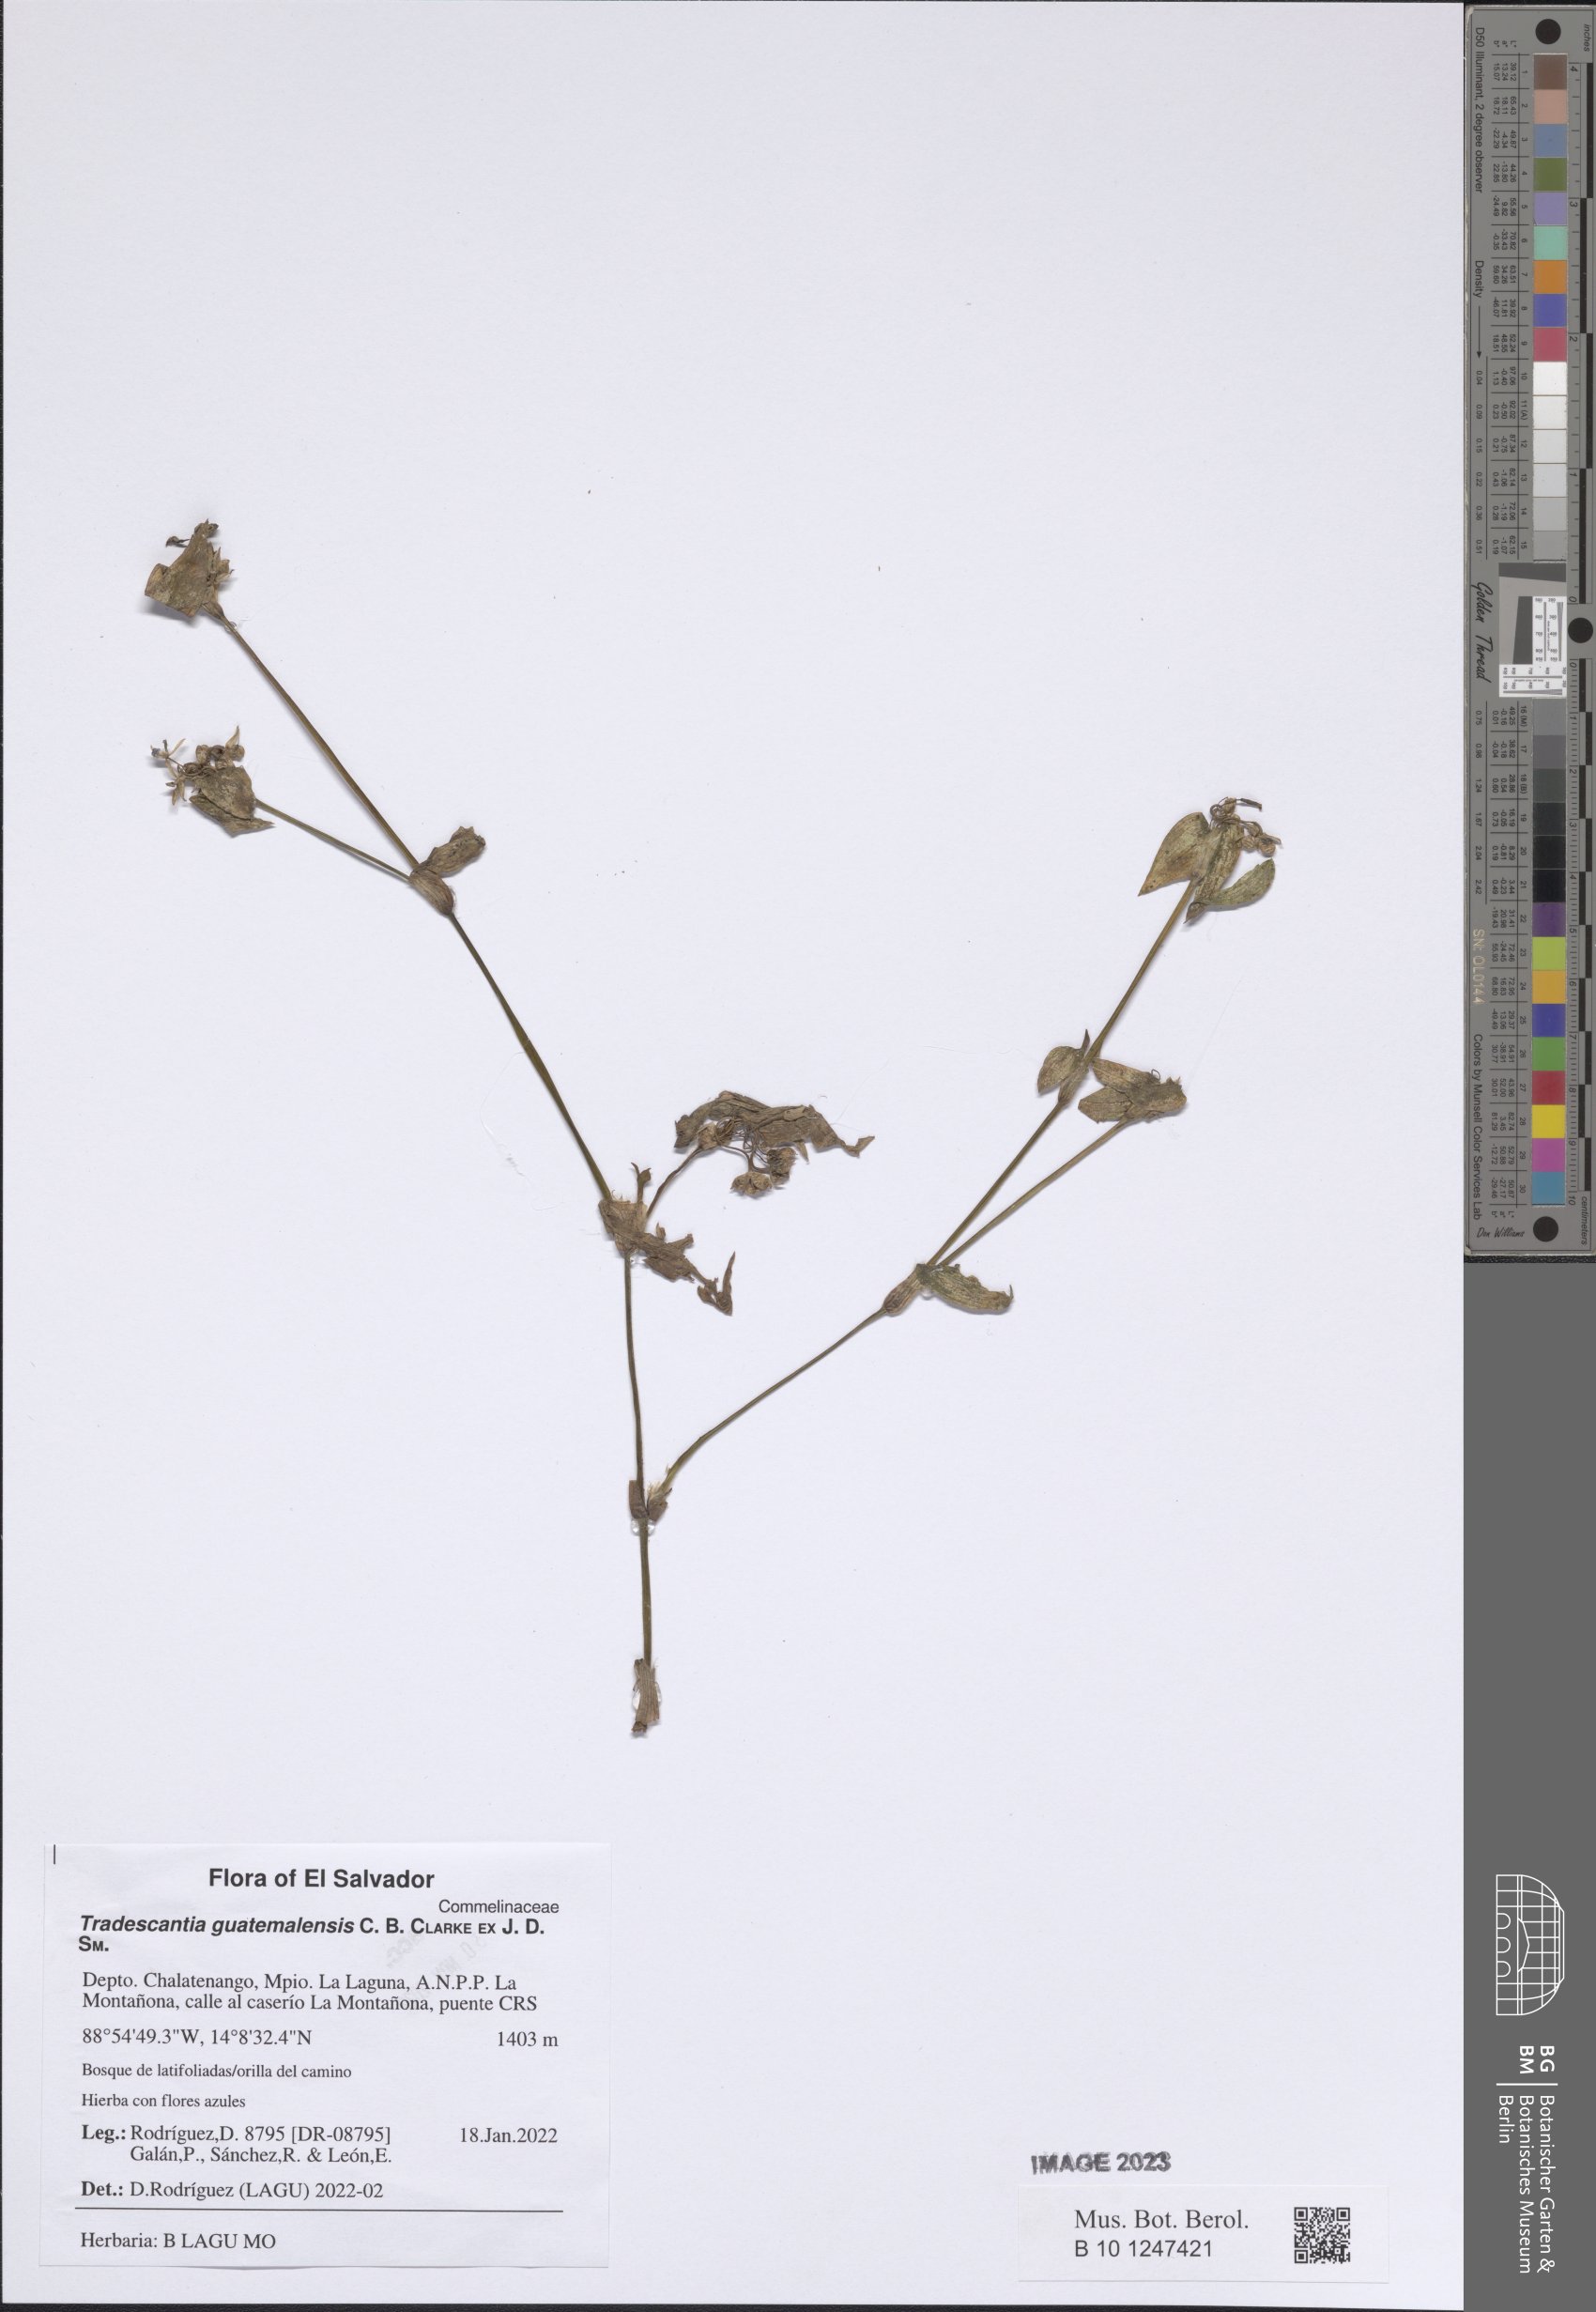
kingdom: Plantae
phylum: Tracheophyta
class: Liliopsida
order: Commelinales
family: Commelinaceae
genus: Elasis
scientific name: Elasis guatemalensis
